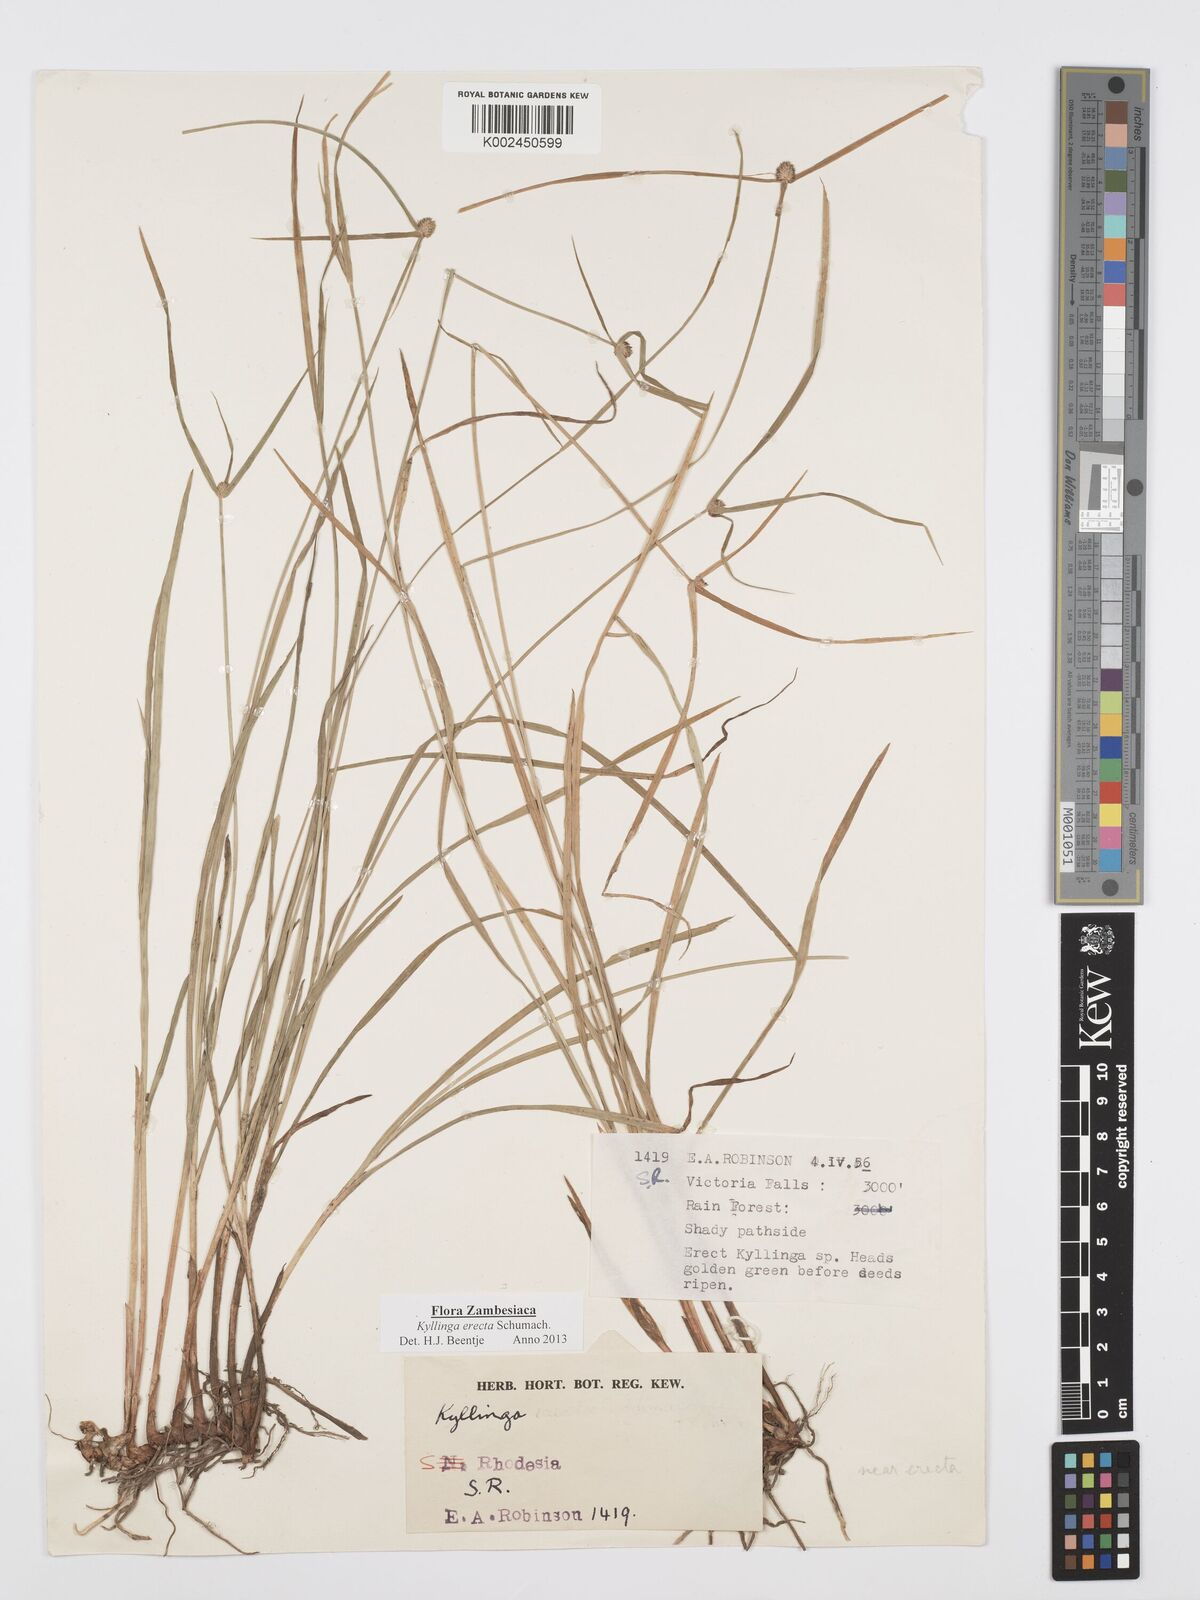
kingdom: Plantae
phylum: Tracheophyta
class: Liliopsida
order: Poales
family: Cyperaceae
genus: Cyperus
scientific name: Cyperus erectus
